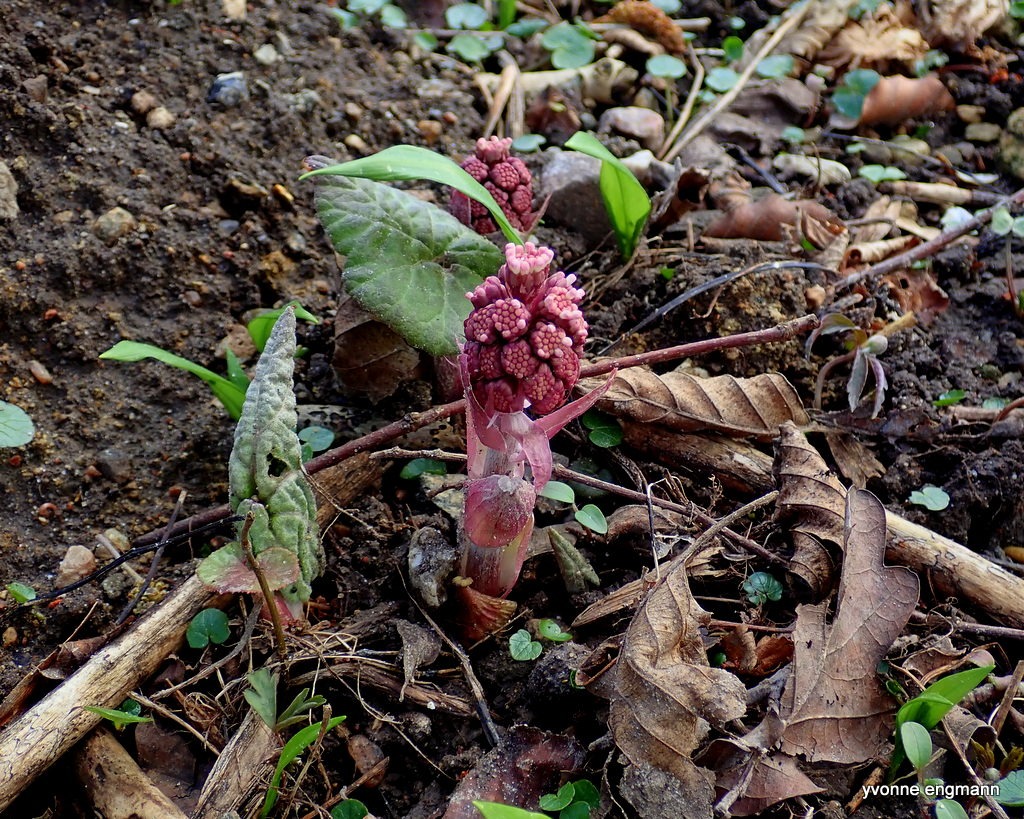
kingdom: Plantae
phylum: Tracheophyta
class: Magnoliopsida
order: Asterales
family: Asteraceae
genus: Petasites
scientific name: Petasites hybridus
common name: Rød hestehov
